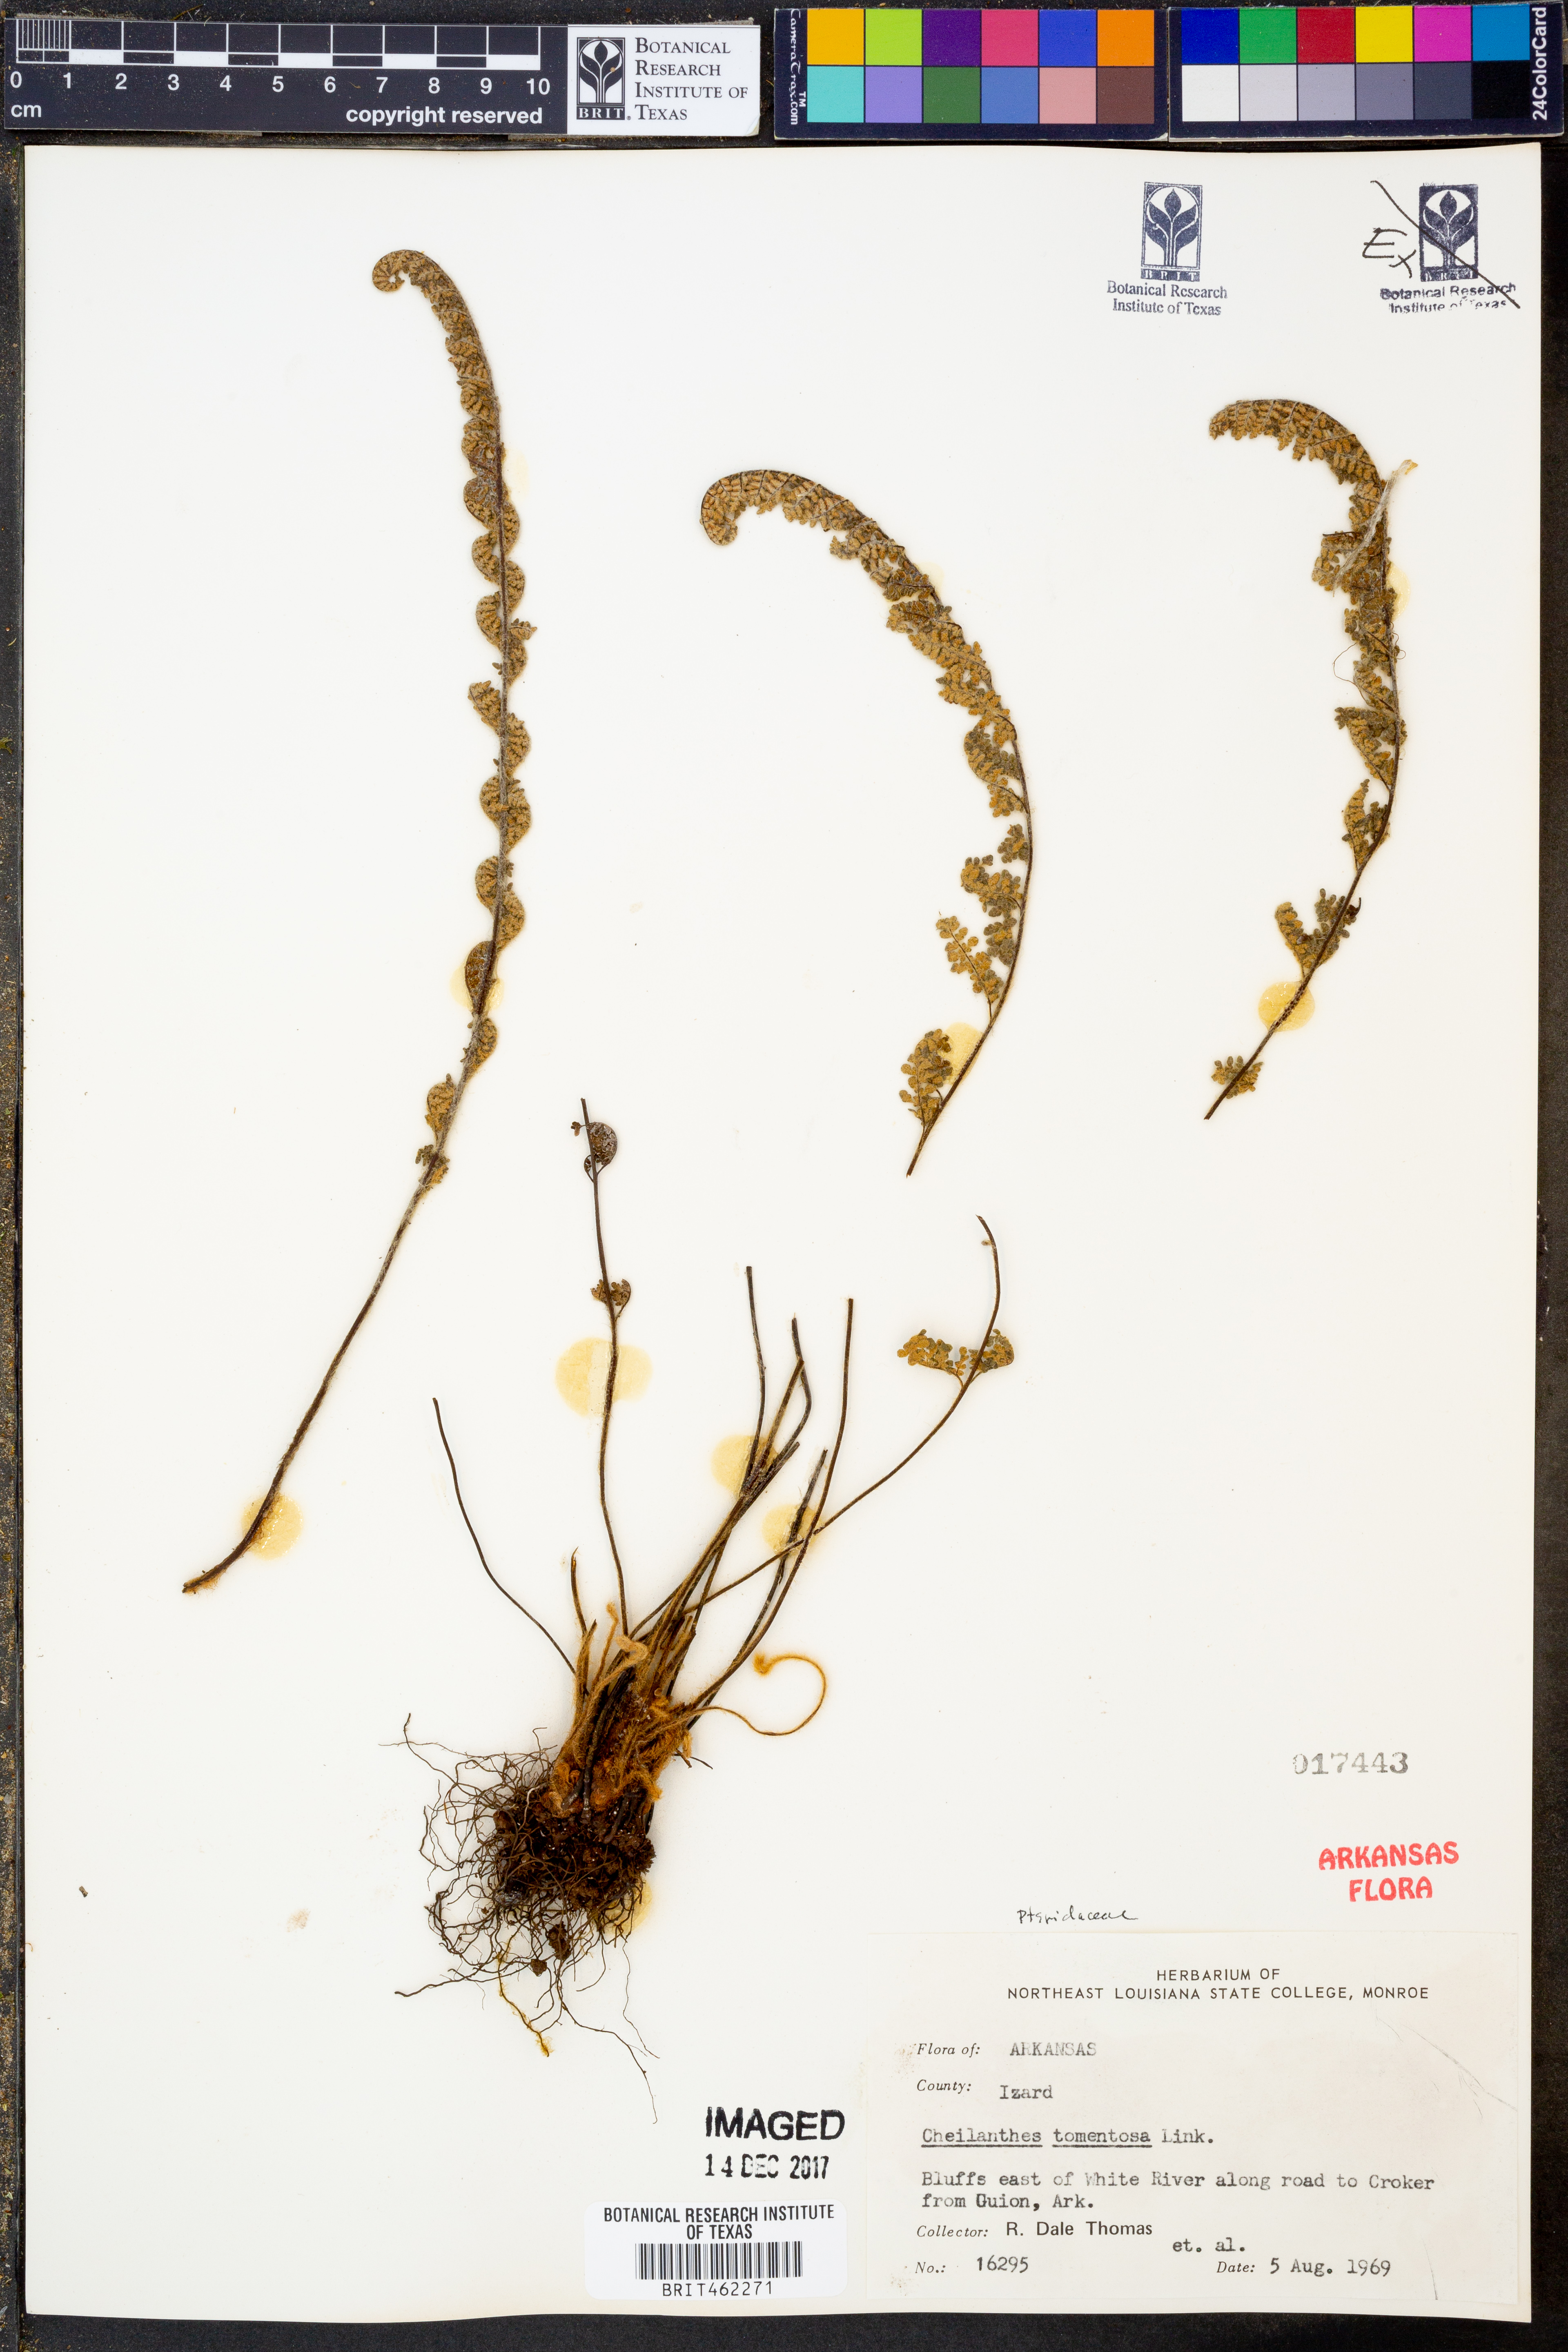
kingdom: Plantae
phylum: Tracheophyta
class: Polypodiopsida
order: Polypodiales
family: Pteridaceae
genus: Myriopteris
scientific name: Myriopteris tomentosa
